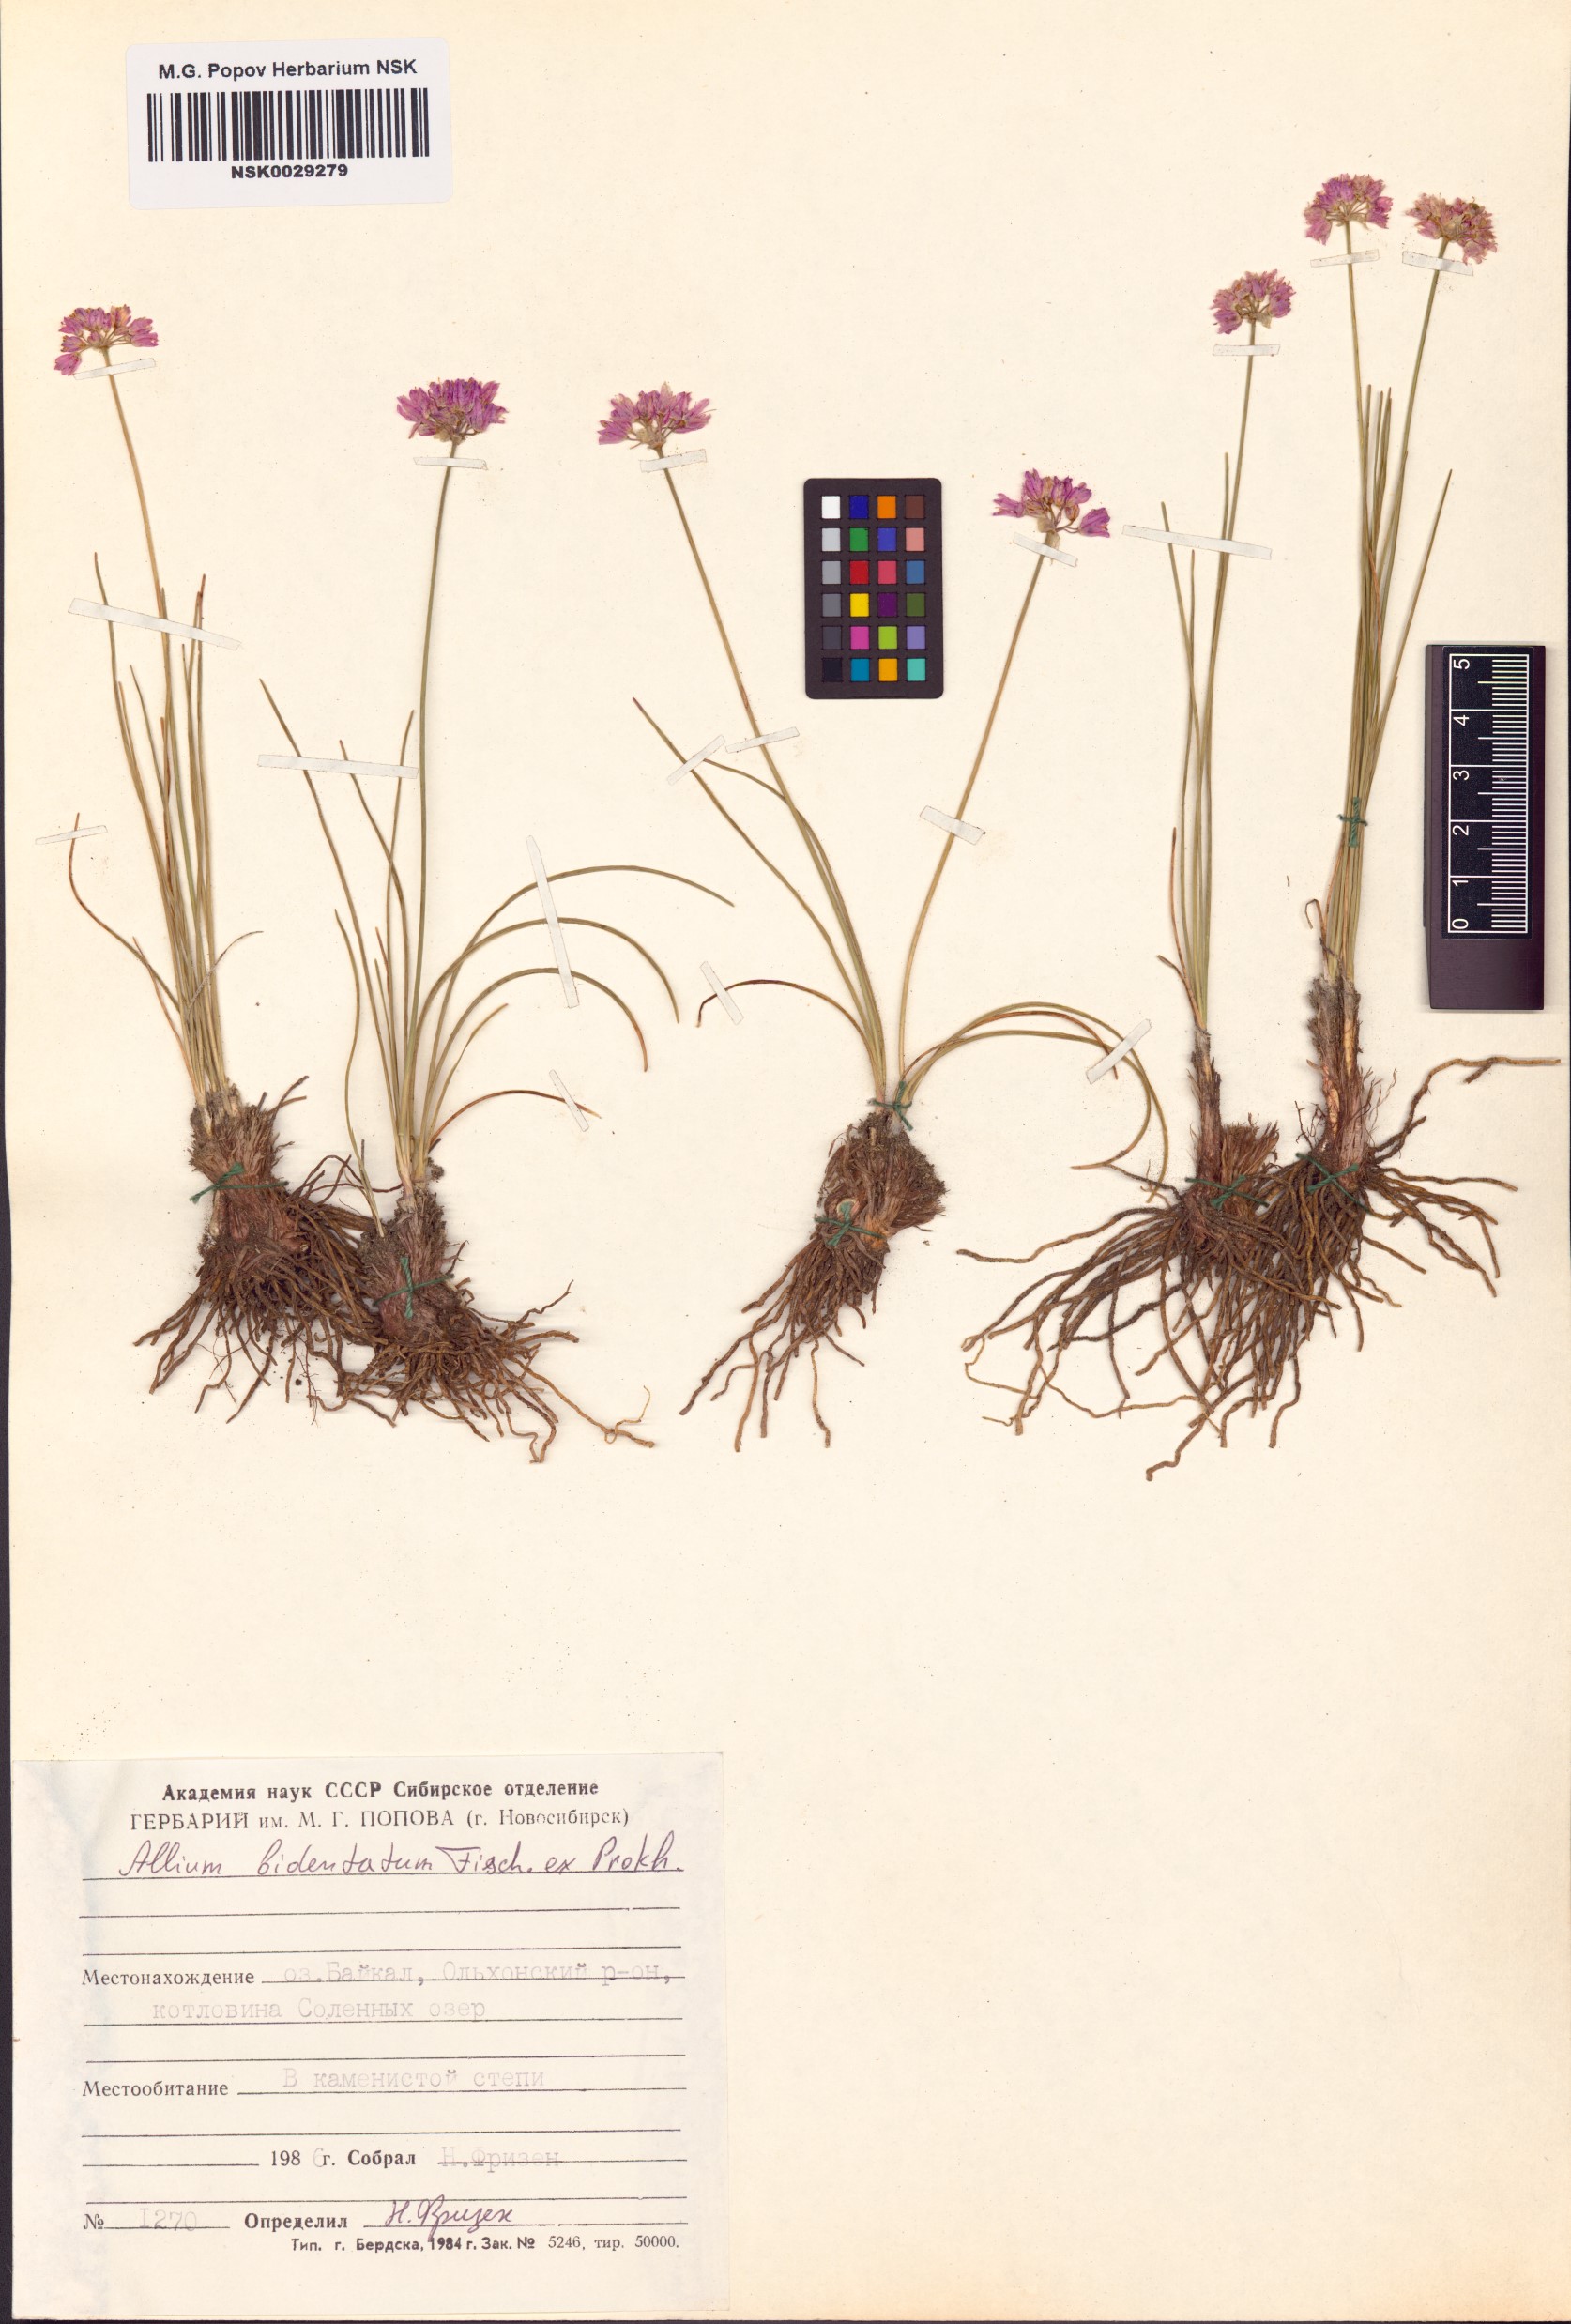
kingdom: Plantae
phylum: Tracheophyta
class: Liliopsida
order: Asparagales
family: Amaryllidaceae
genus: Allium
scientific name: Allium bidentatum
